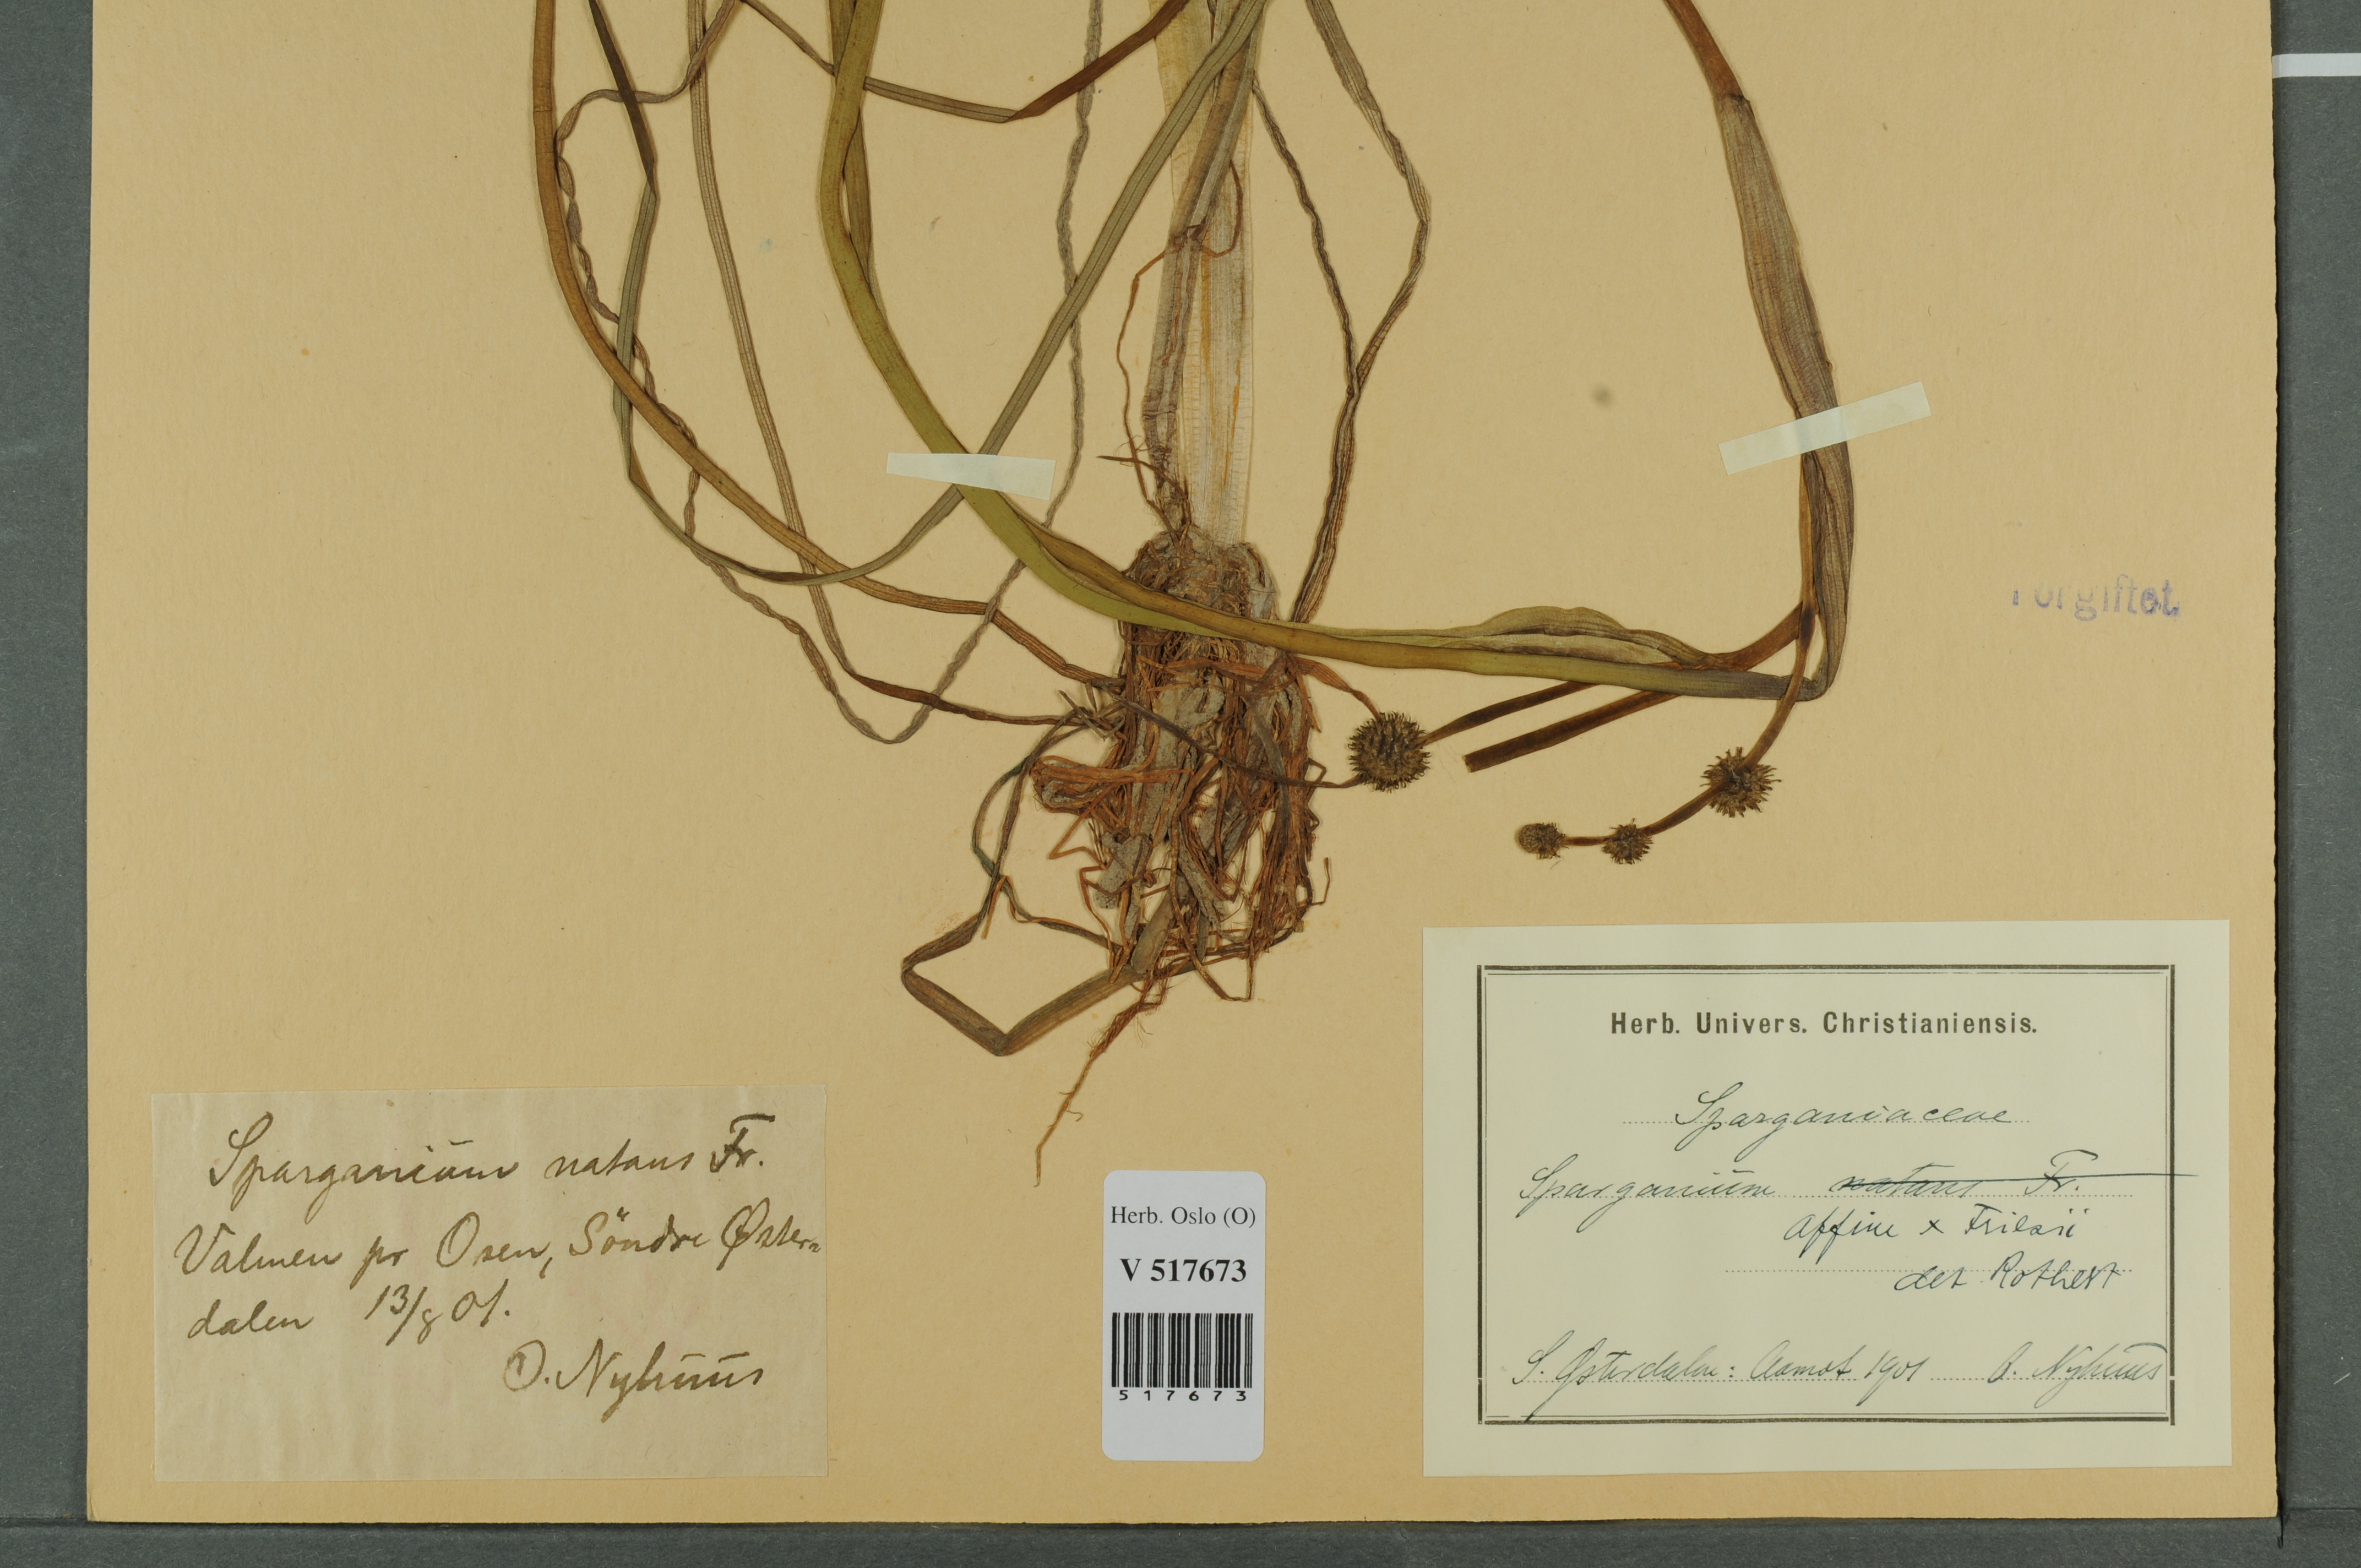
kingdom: Plantae
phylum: Tracheophyta
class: Liliopsida
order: Poales
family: Typhaceae
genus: Sparganium
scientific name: Sparganium
